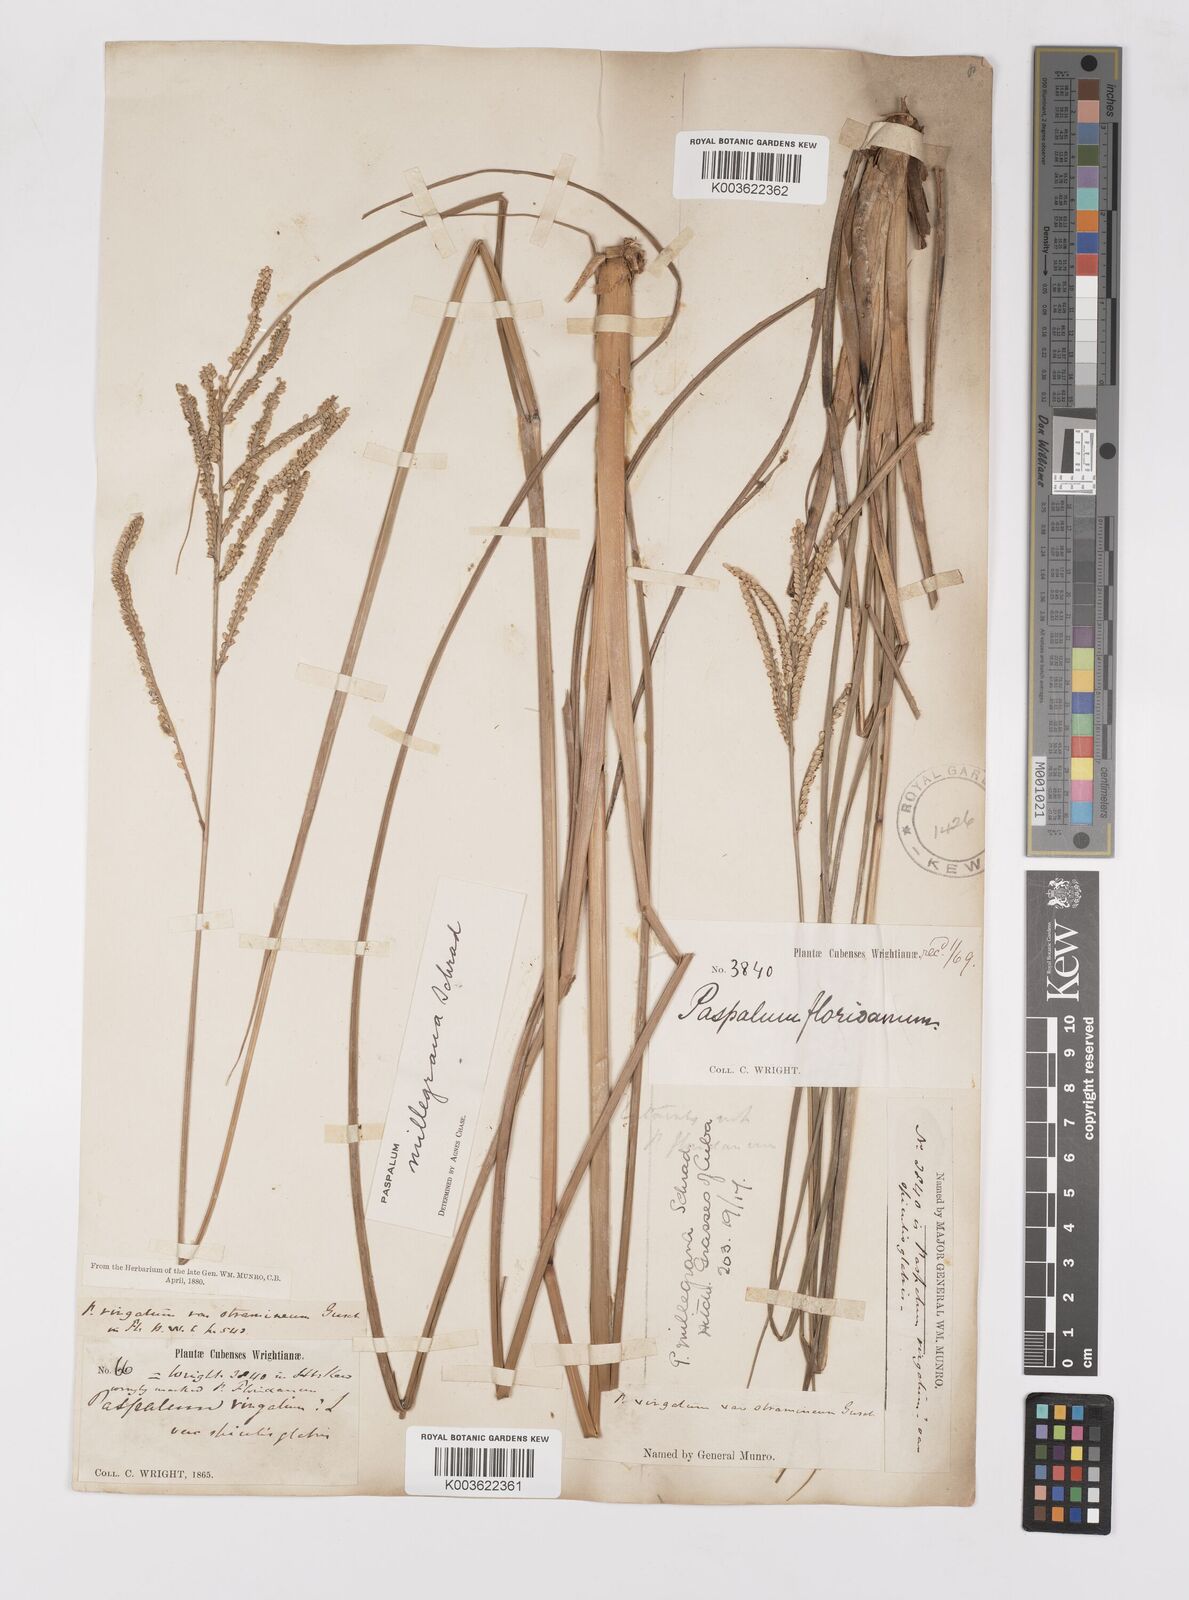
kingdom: Plantae
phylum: Tracheophyta
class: Liliopsida
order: Poales
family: Poaceae
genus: Paspalum
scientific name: Paspalum millegranum
